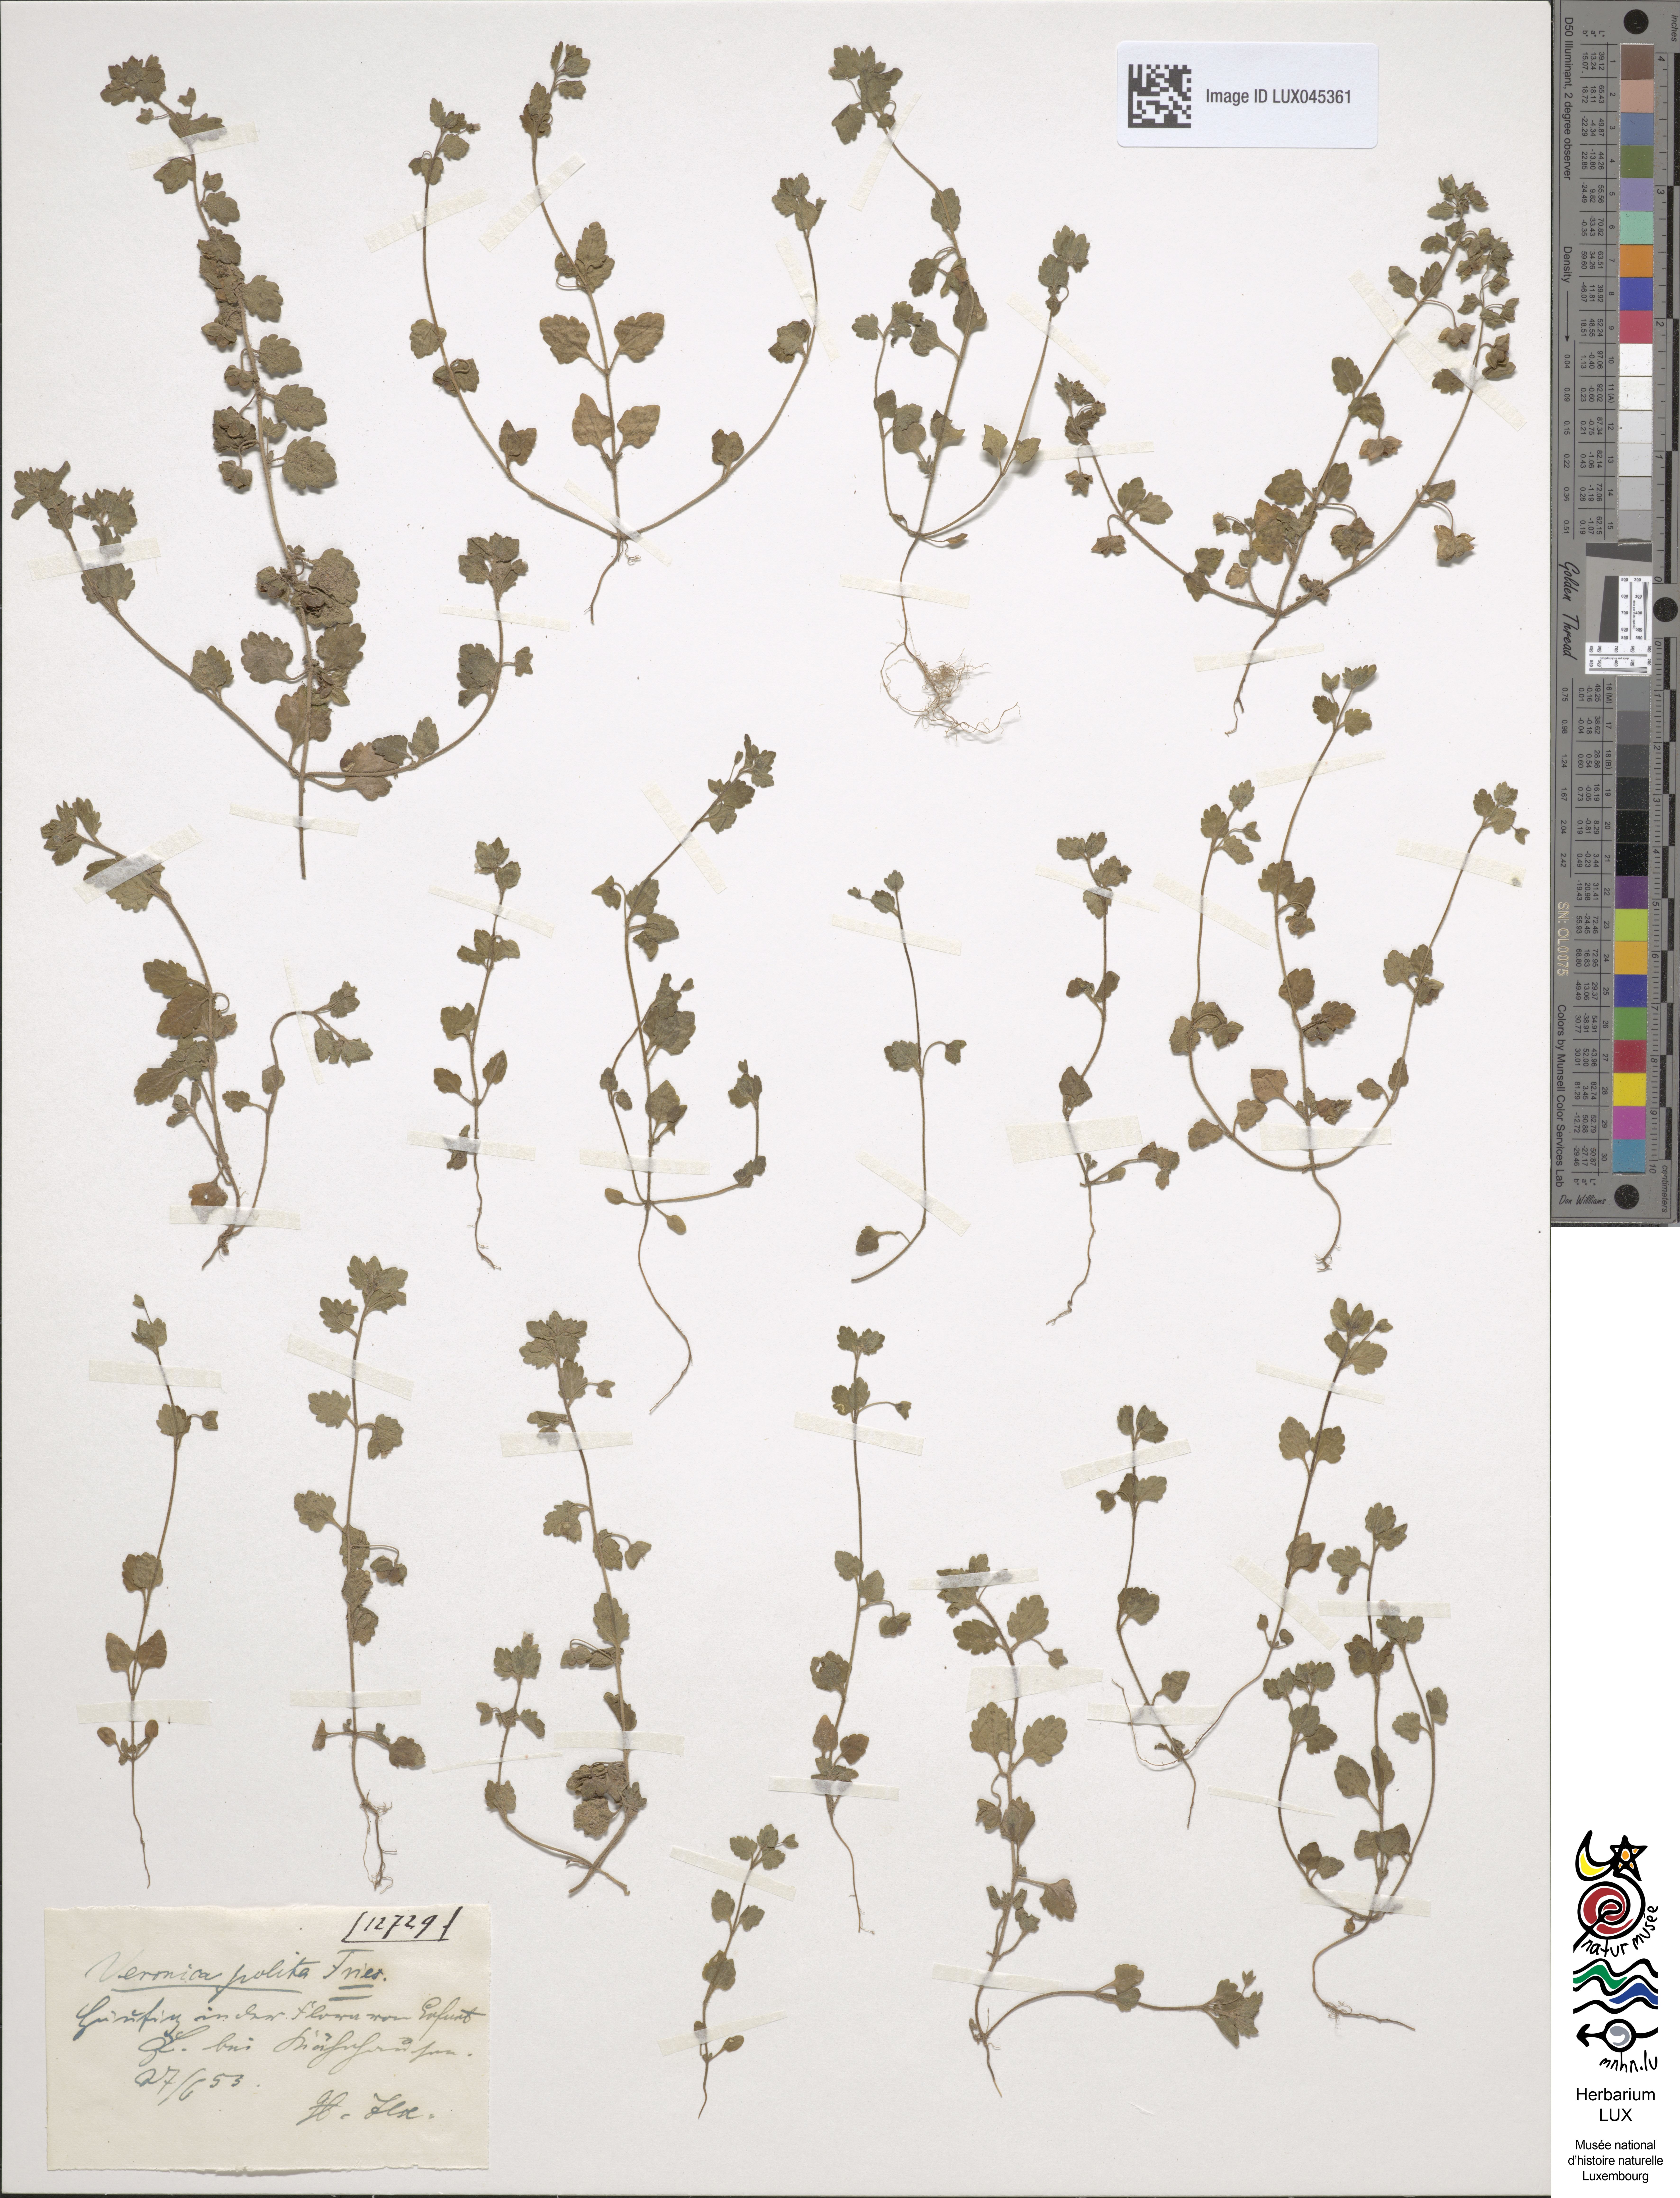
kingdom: Plantae
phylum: Tracheophyta
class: Magnoliopsida
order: Lamiales
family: Plantaginaceae
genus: Veronica
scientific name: Veronica polita
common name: Grey field-speedwell
